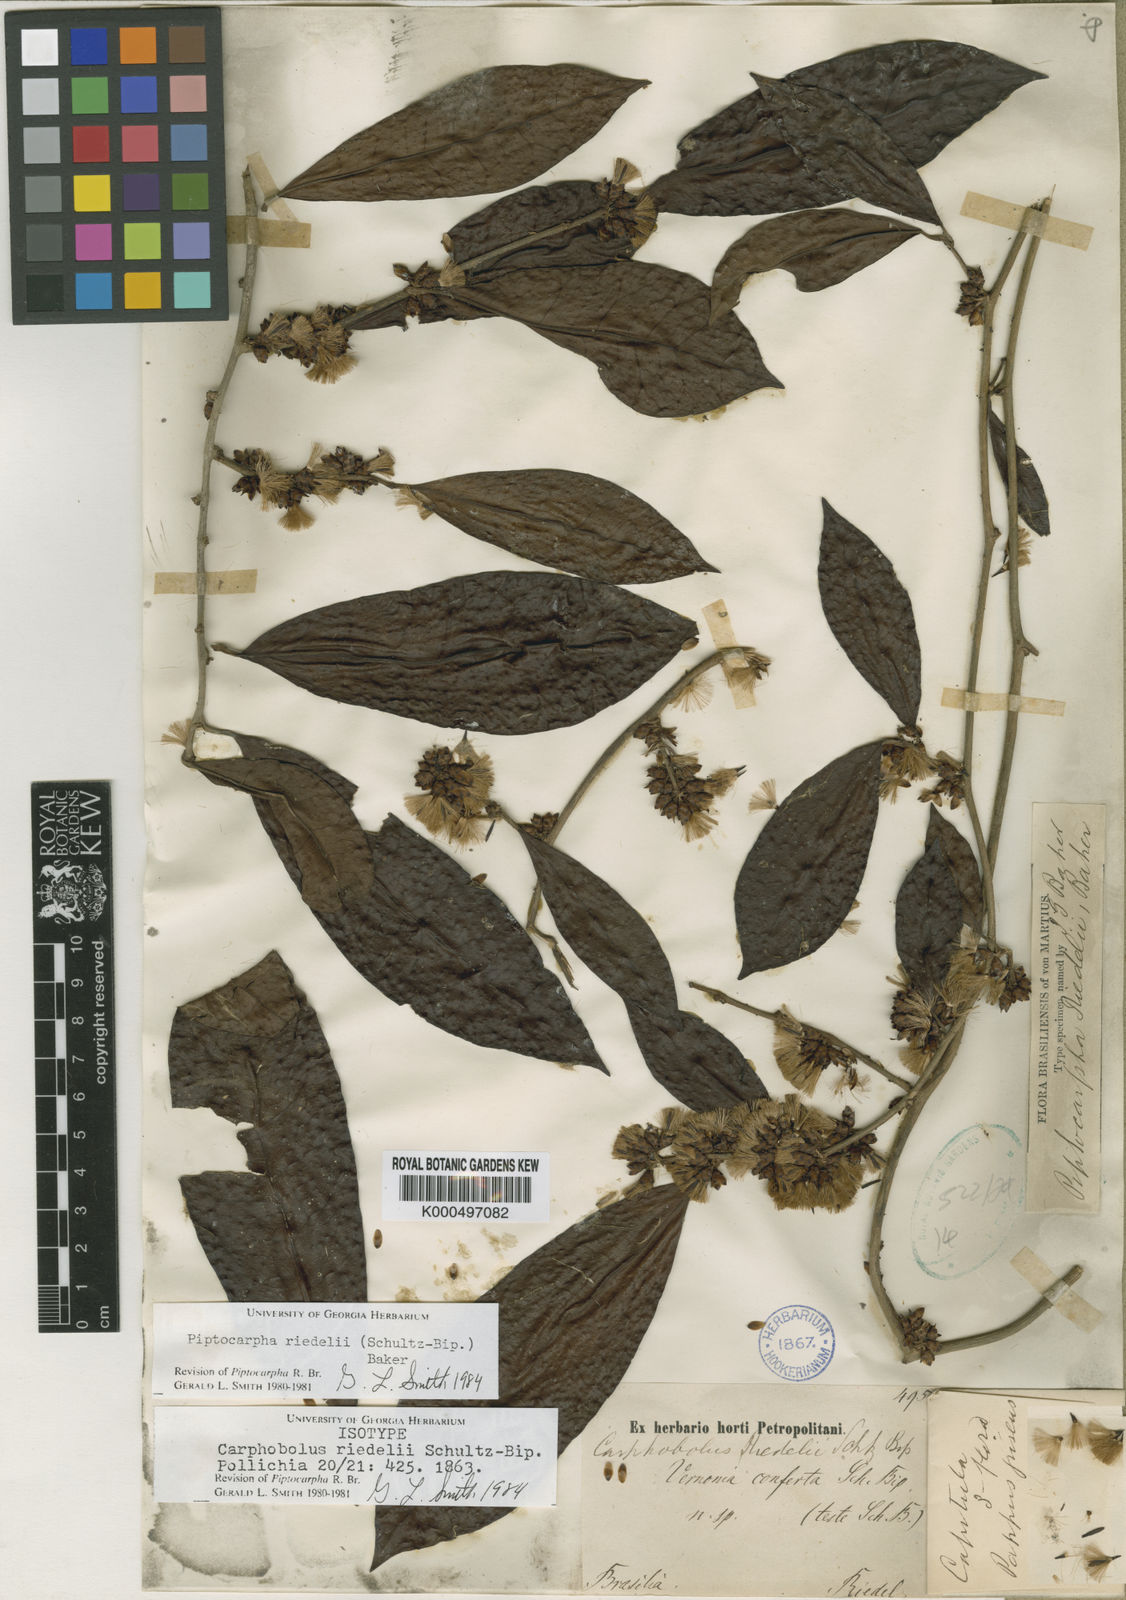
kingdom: Plantae
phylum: Tracheophyta
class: Magnoliopsida
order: Asterales
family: Asteraceae
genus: Piptocarpha
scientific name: Piptocarpha riedelii
